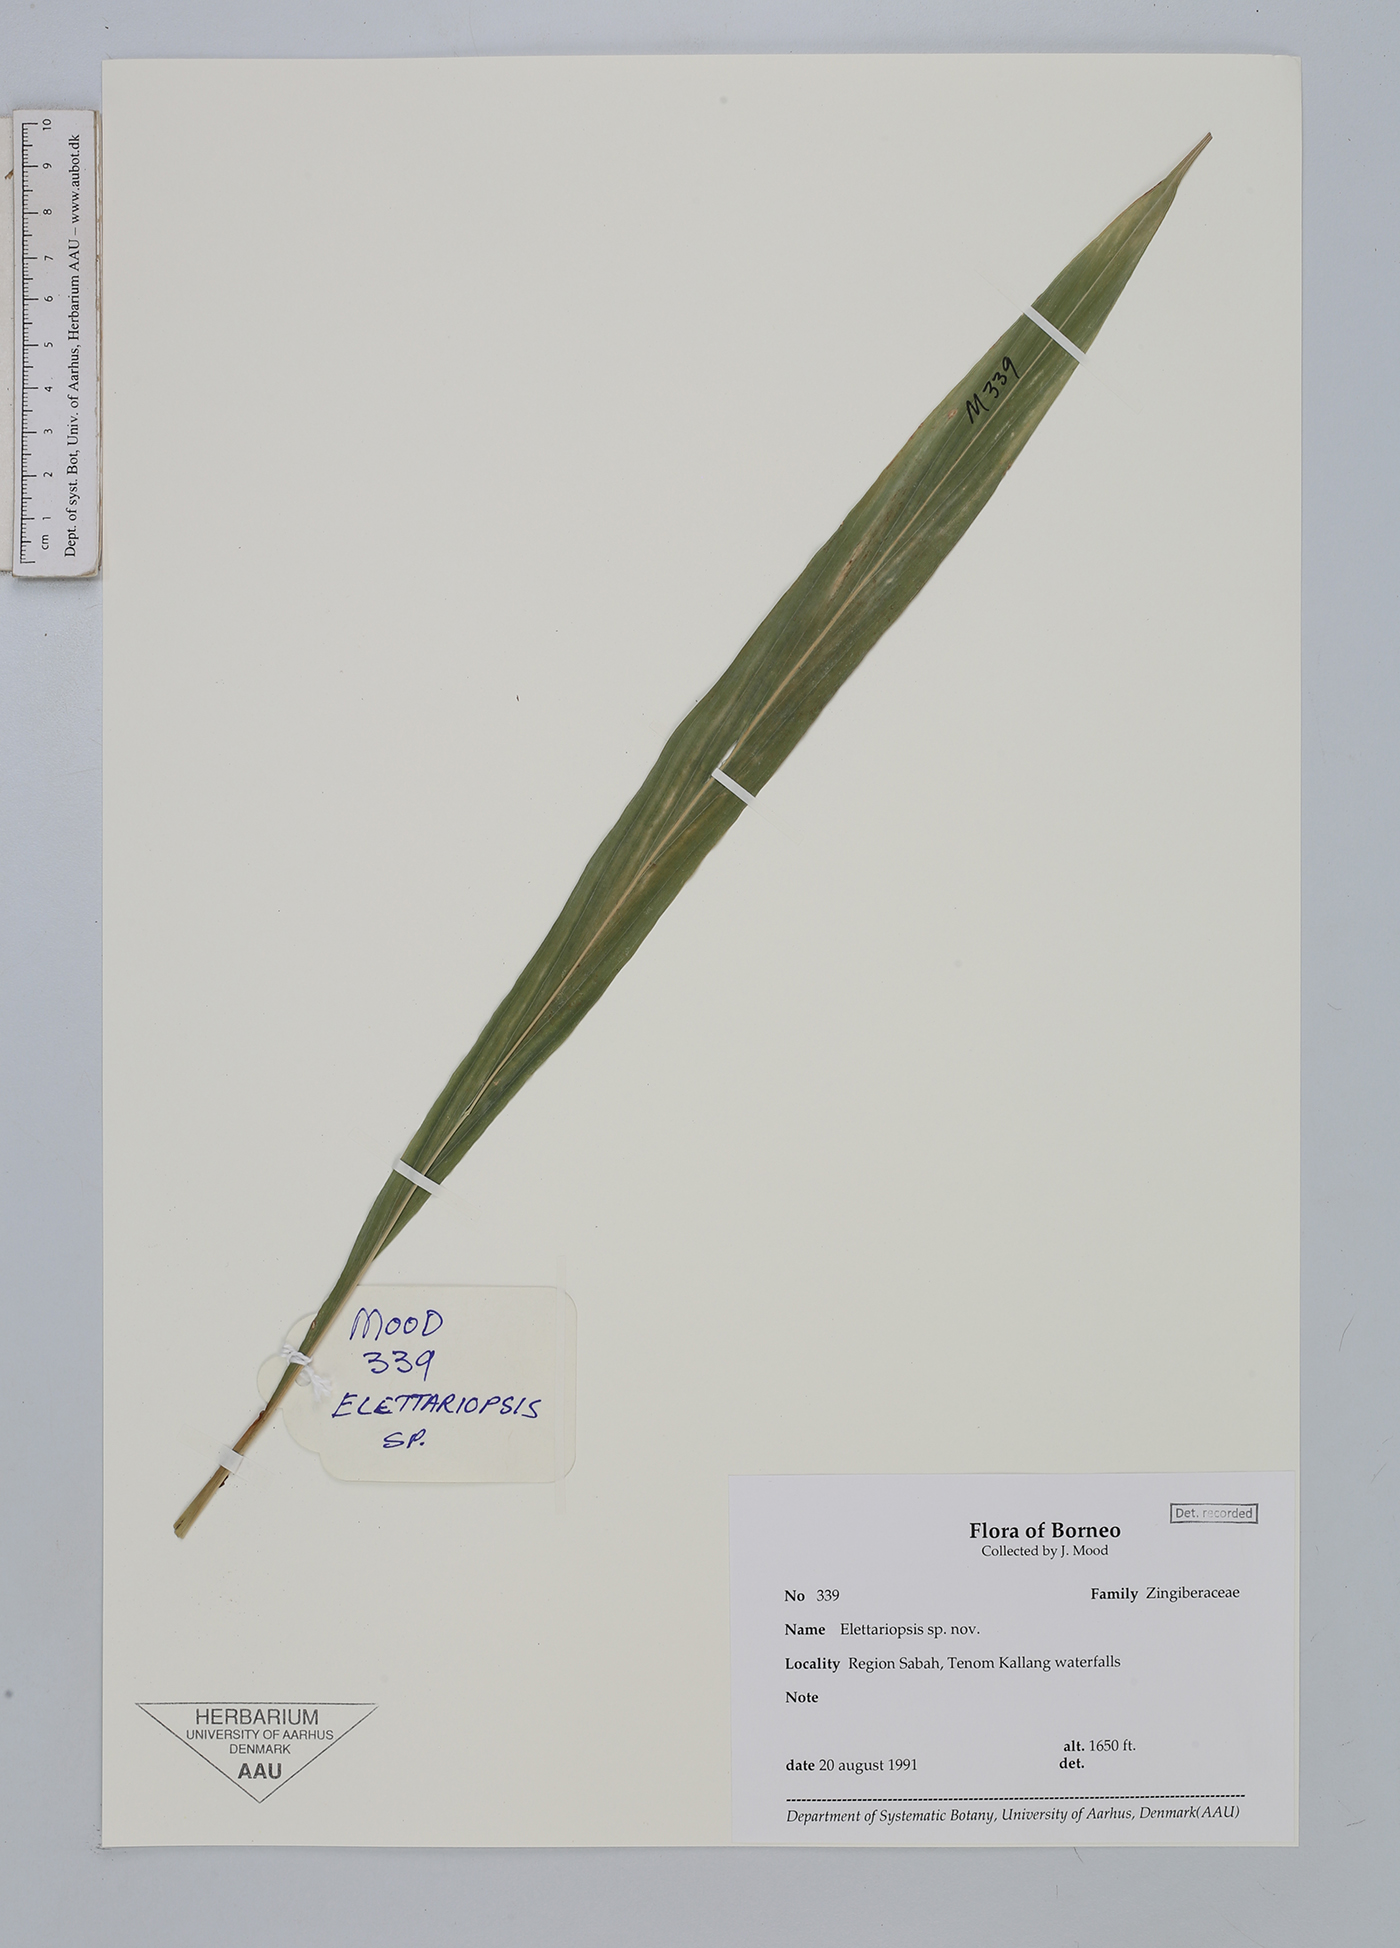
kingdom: Plantae
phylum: Tracheophyta
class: Liliopsida
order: Zingiberales
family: Zingiberaceae
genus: Amomum
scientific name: Amomum
